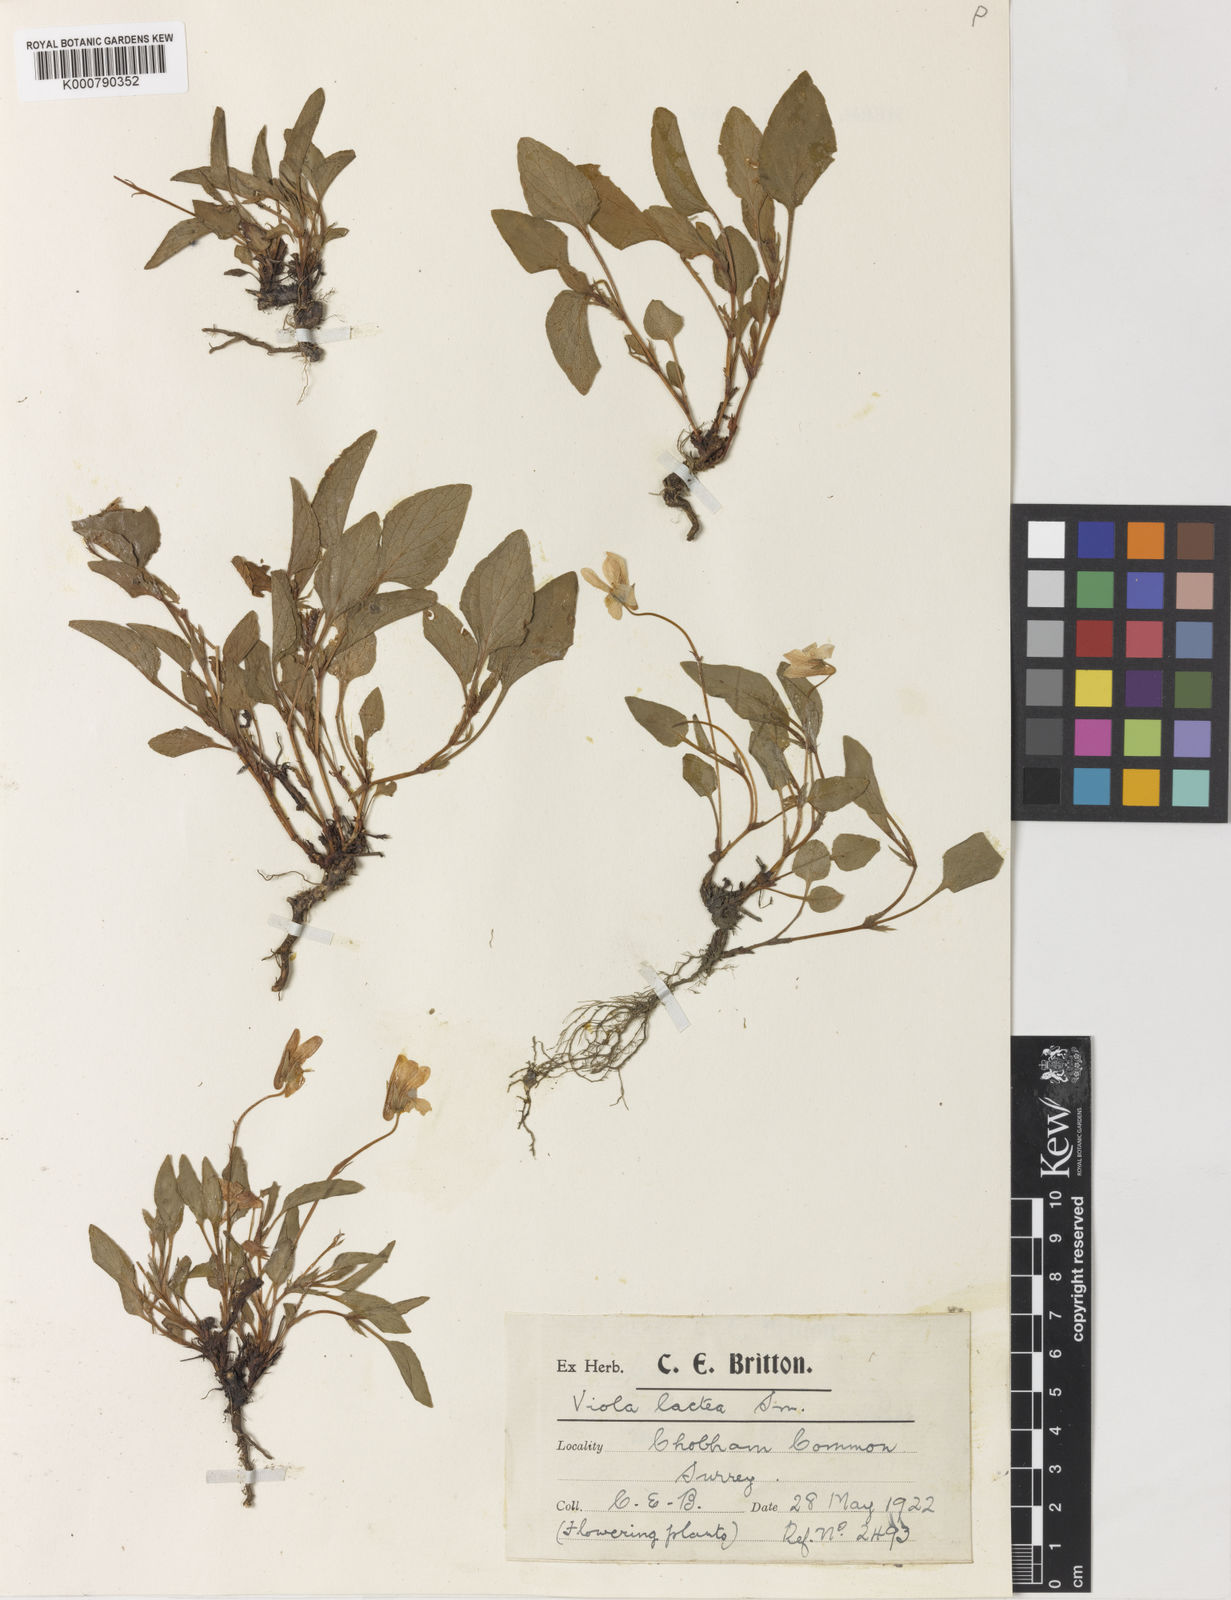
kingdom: Plantae
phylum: Tracheophyta
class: Magnoliopsida
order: Malpighiales
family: Violaceae
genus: Viola
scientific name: Viola lactea
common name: Pale dog-violet
